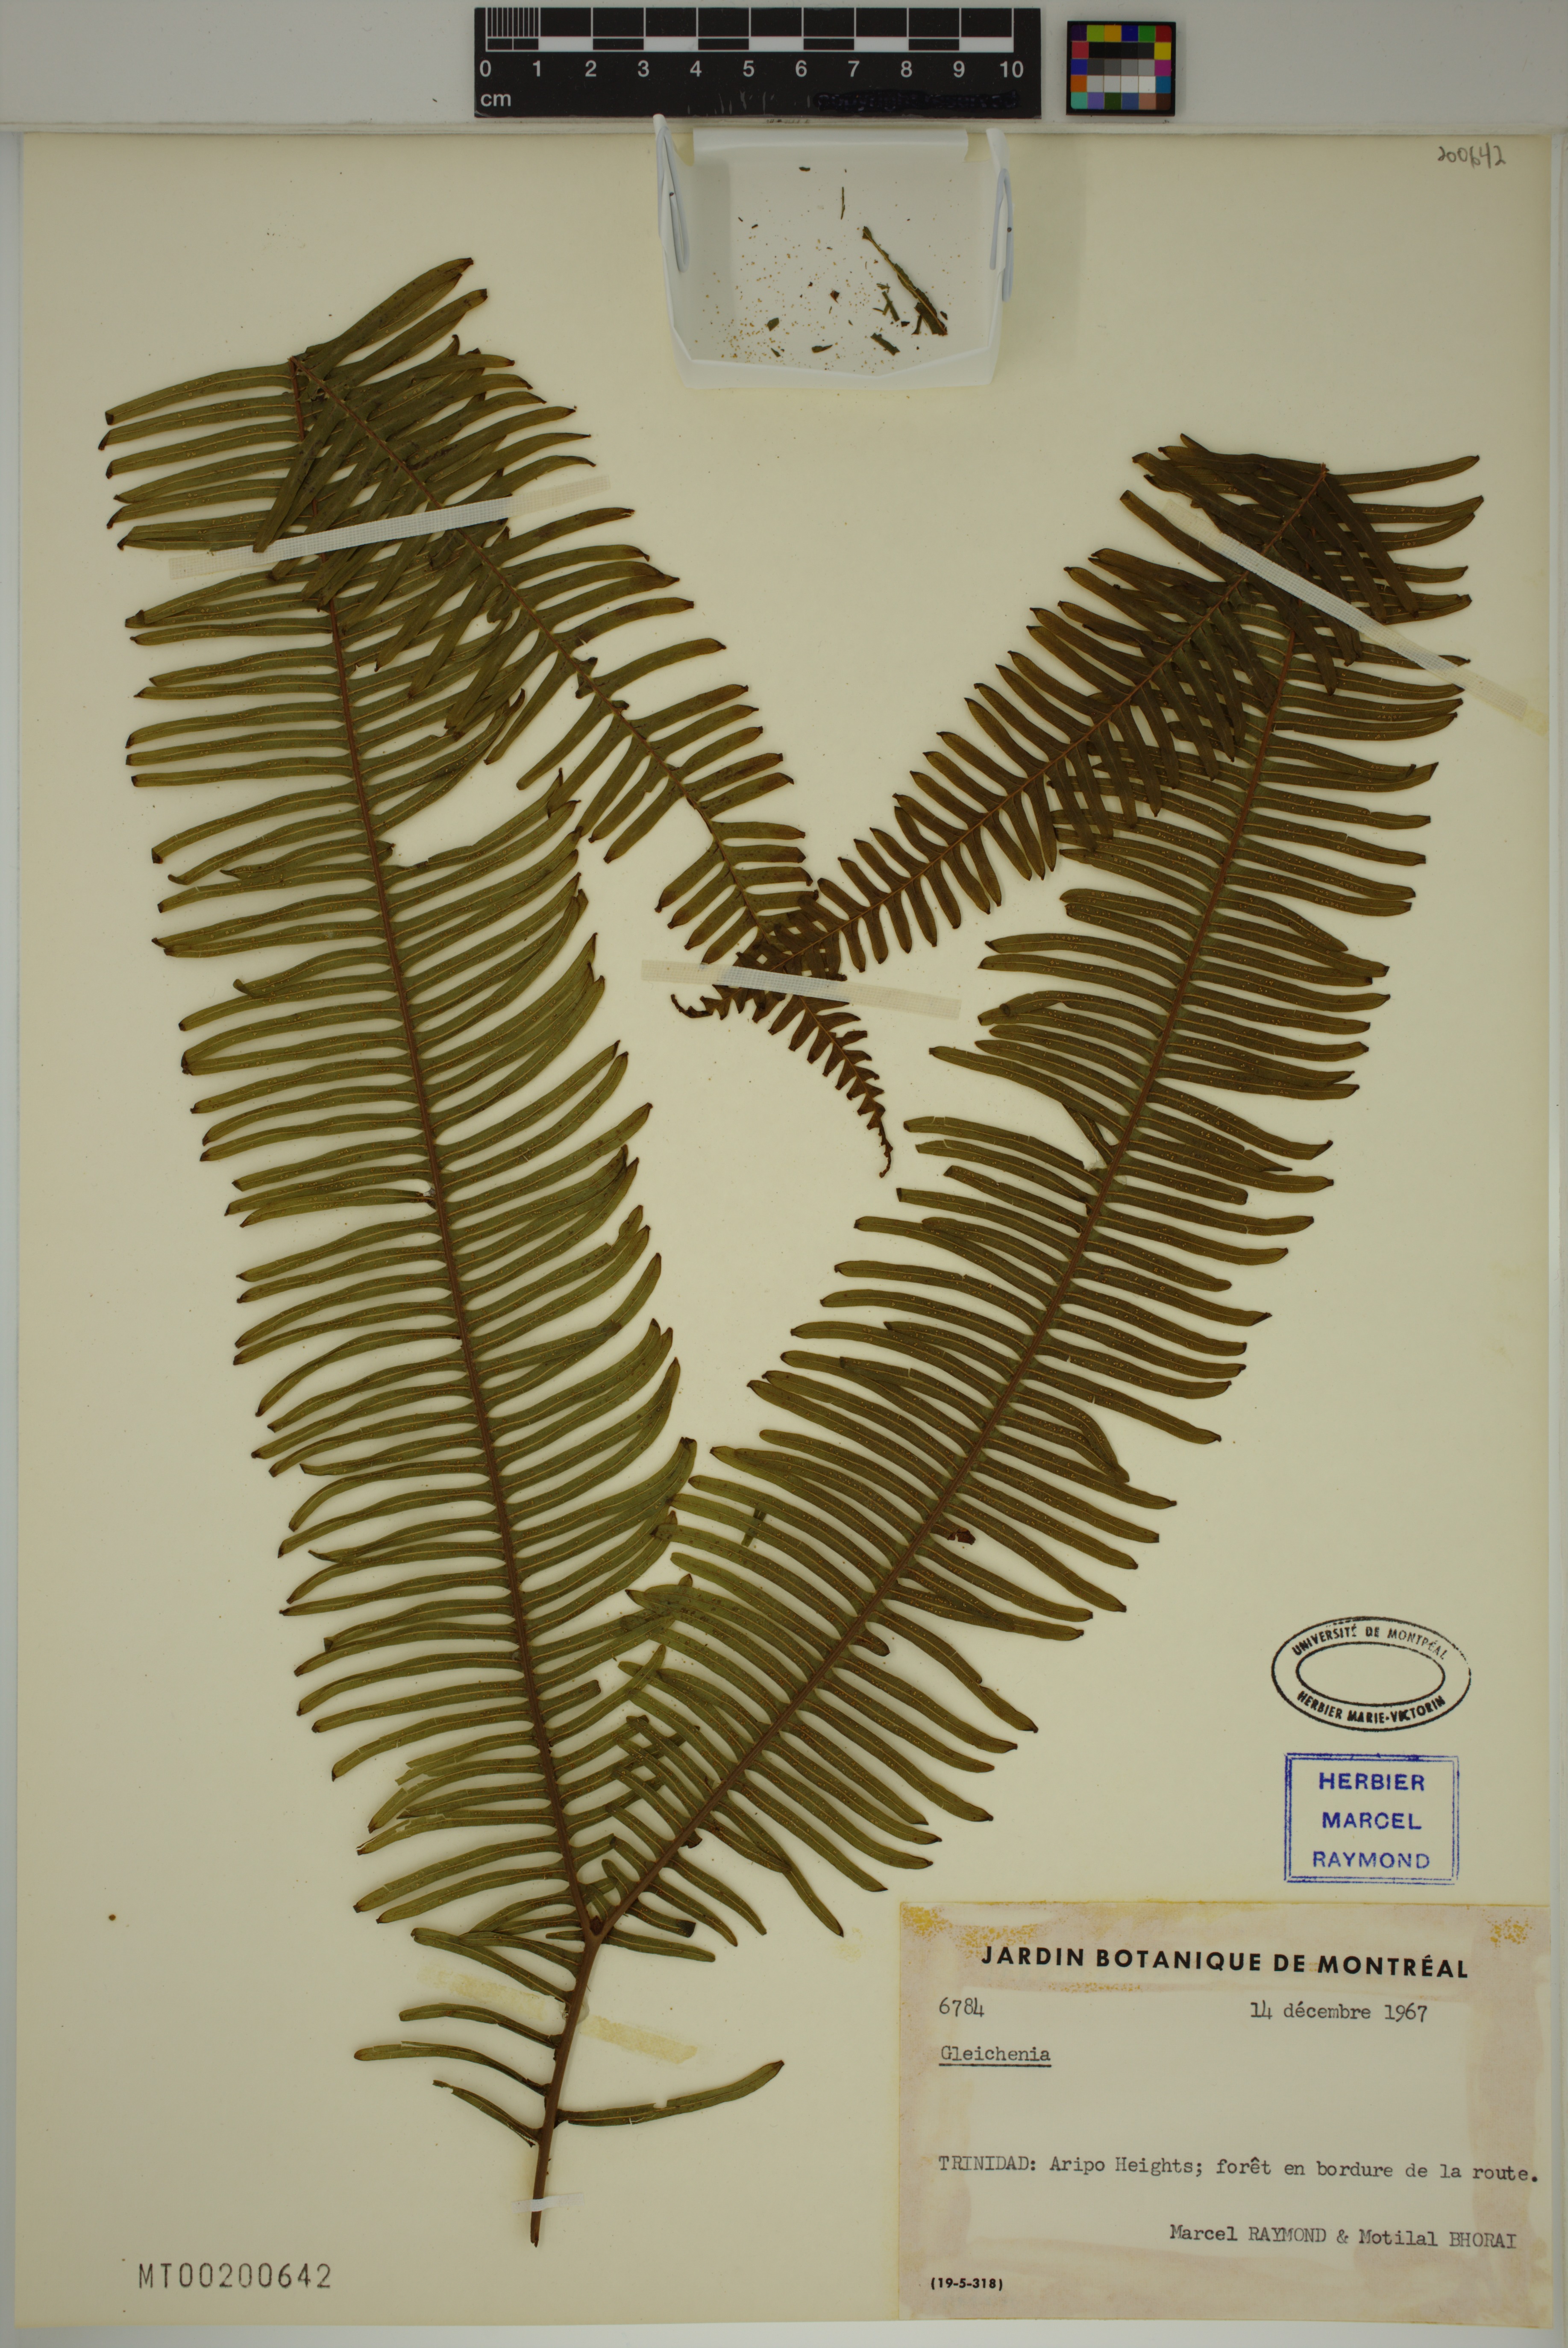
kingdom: Plantae
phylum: Tracheophyta
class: Polypodiopsida
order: Gleicheniales
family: Gleicheniaceae
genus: Gleichenia
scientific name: Gleichenia
